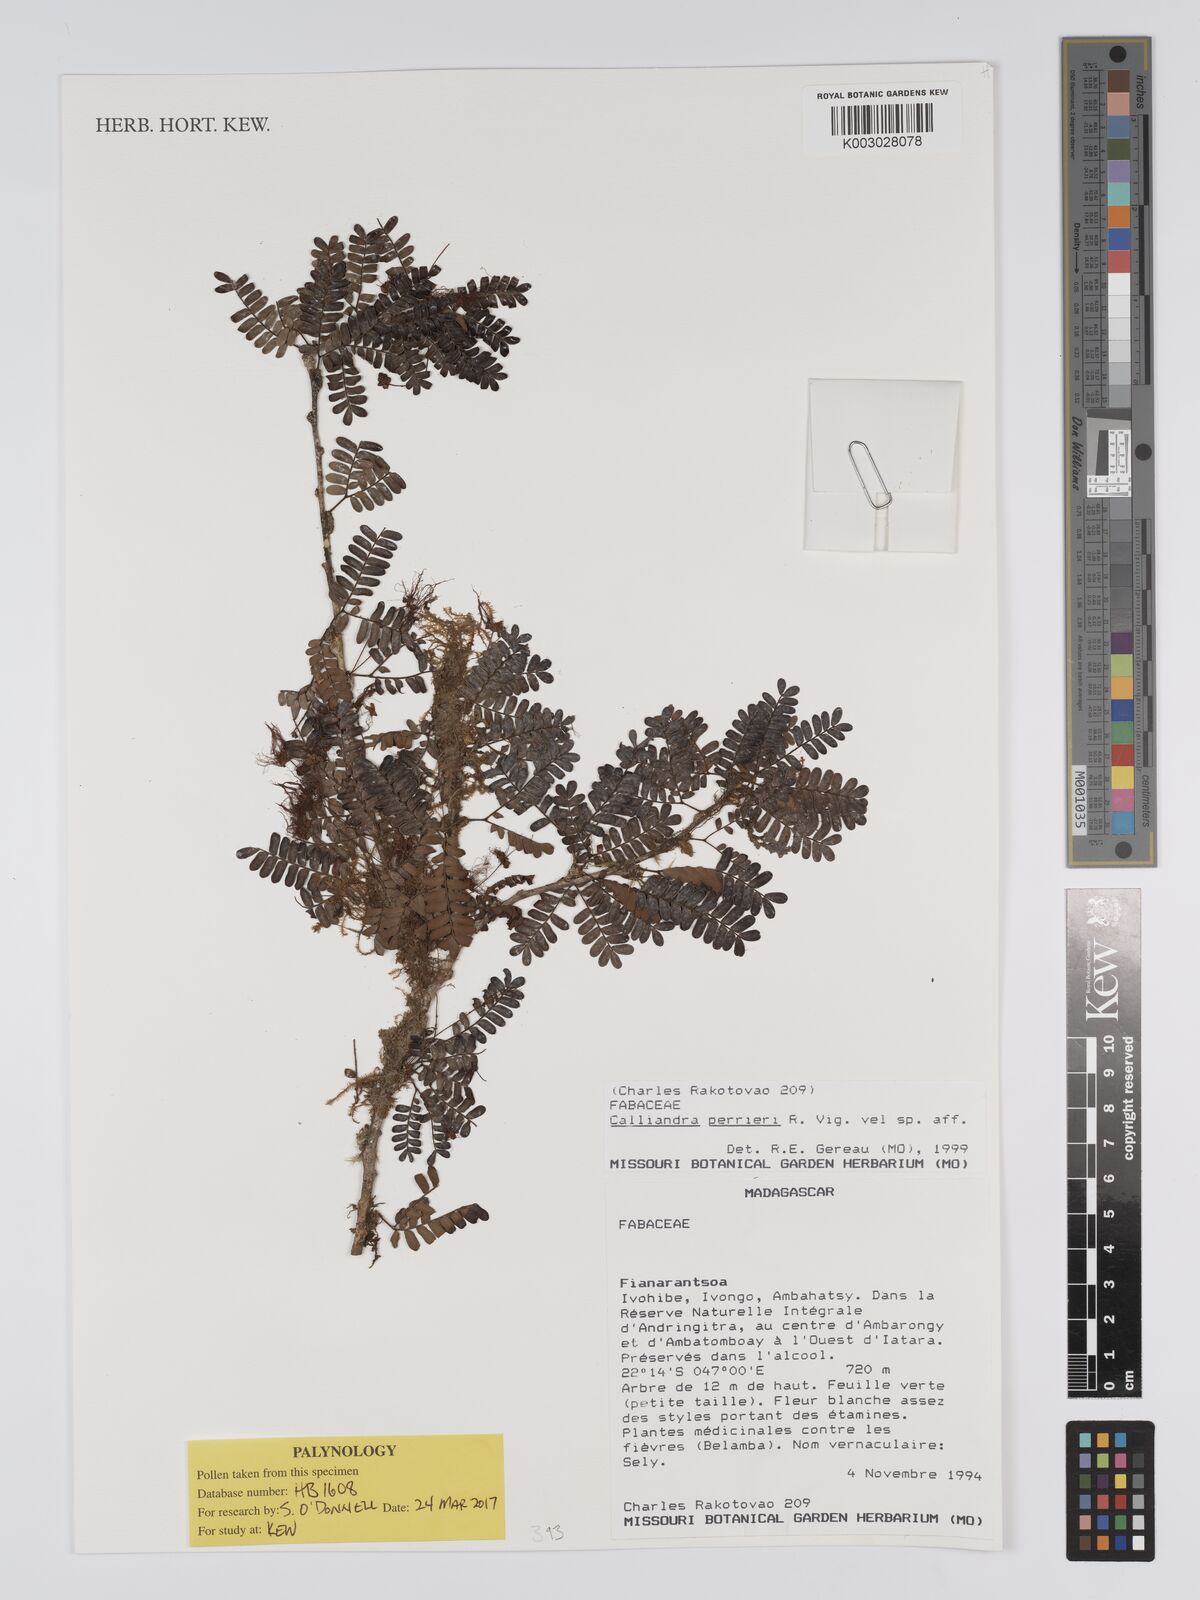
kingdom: Plantae
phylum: Tracheophyta
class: Magnoliopsida
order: Fabales
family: Fabaceae
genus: Viguieranthus
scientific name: Viguieranthus perrieri
